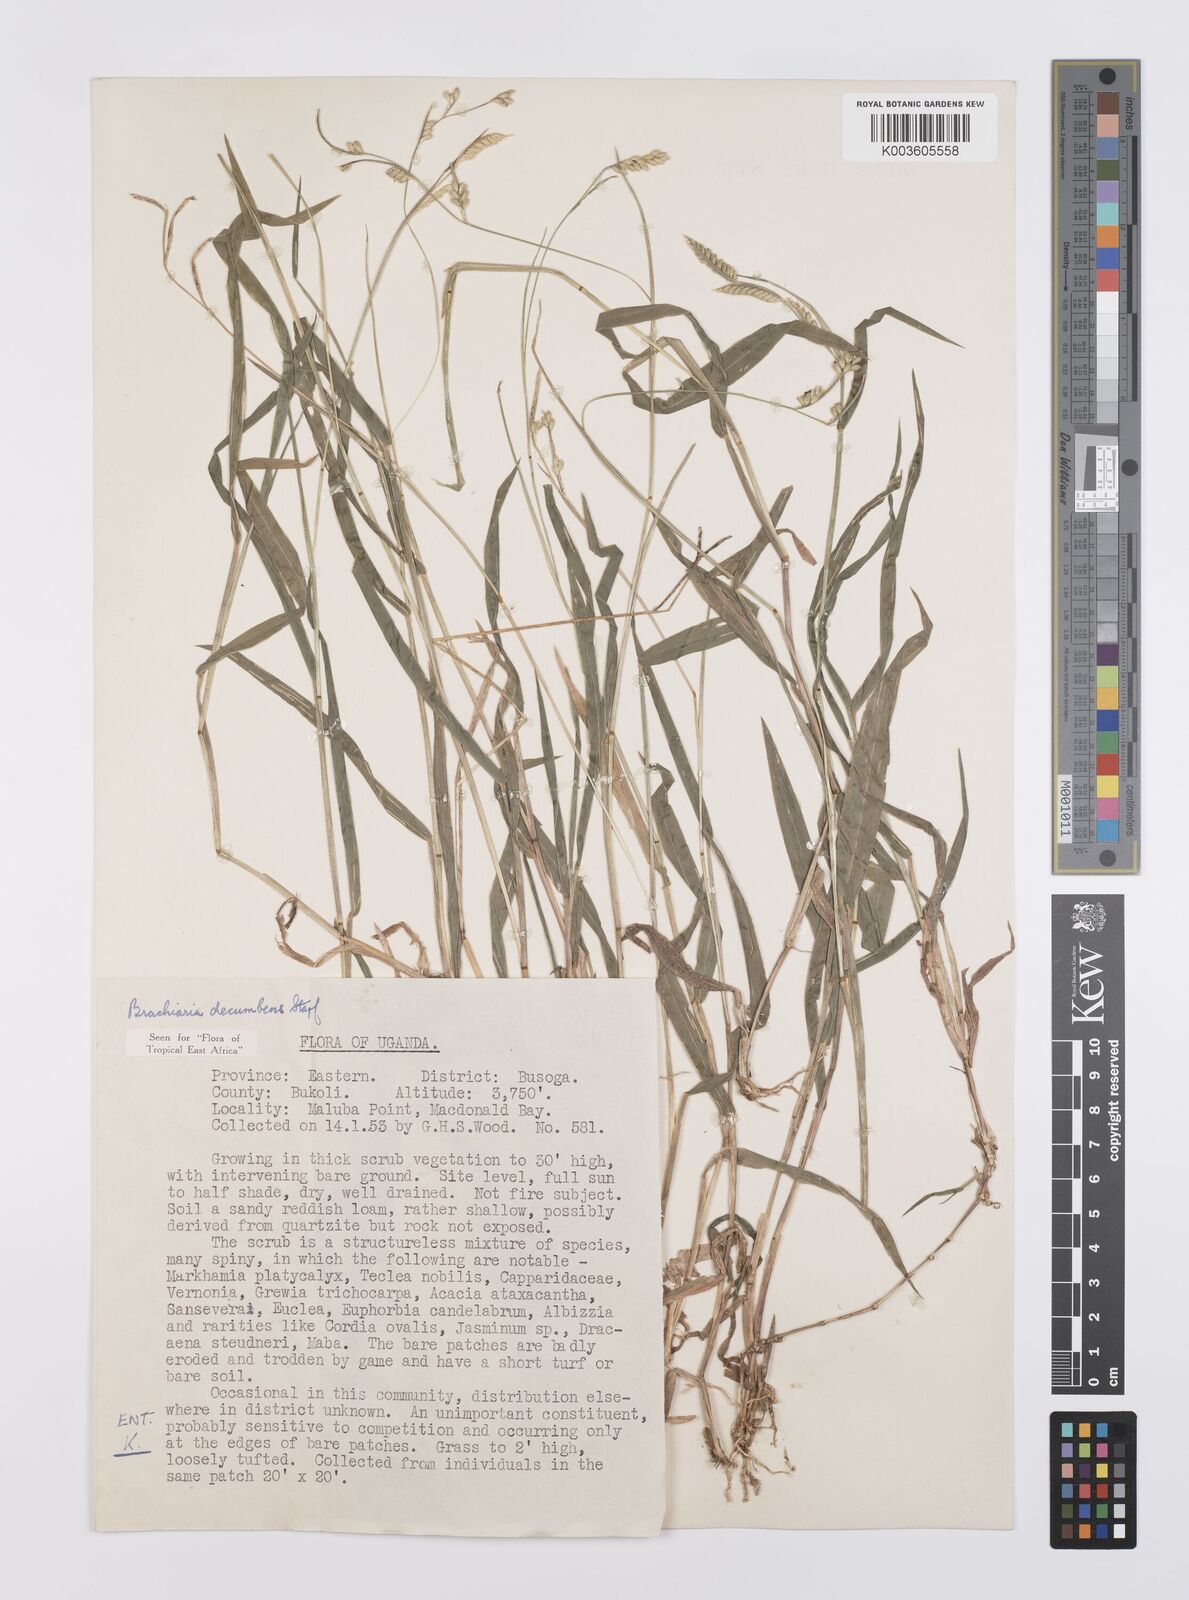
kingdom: Plantae
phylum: Tracheophyta
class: Liliopsida
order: Poales
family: Poaceae
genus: Urochloa
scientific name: Urochloa eminii
